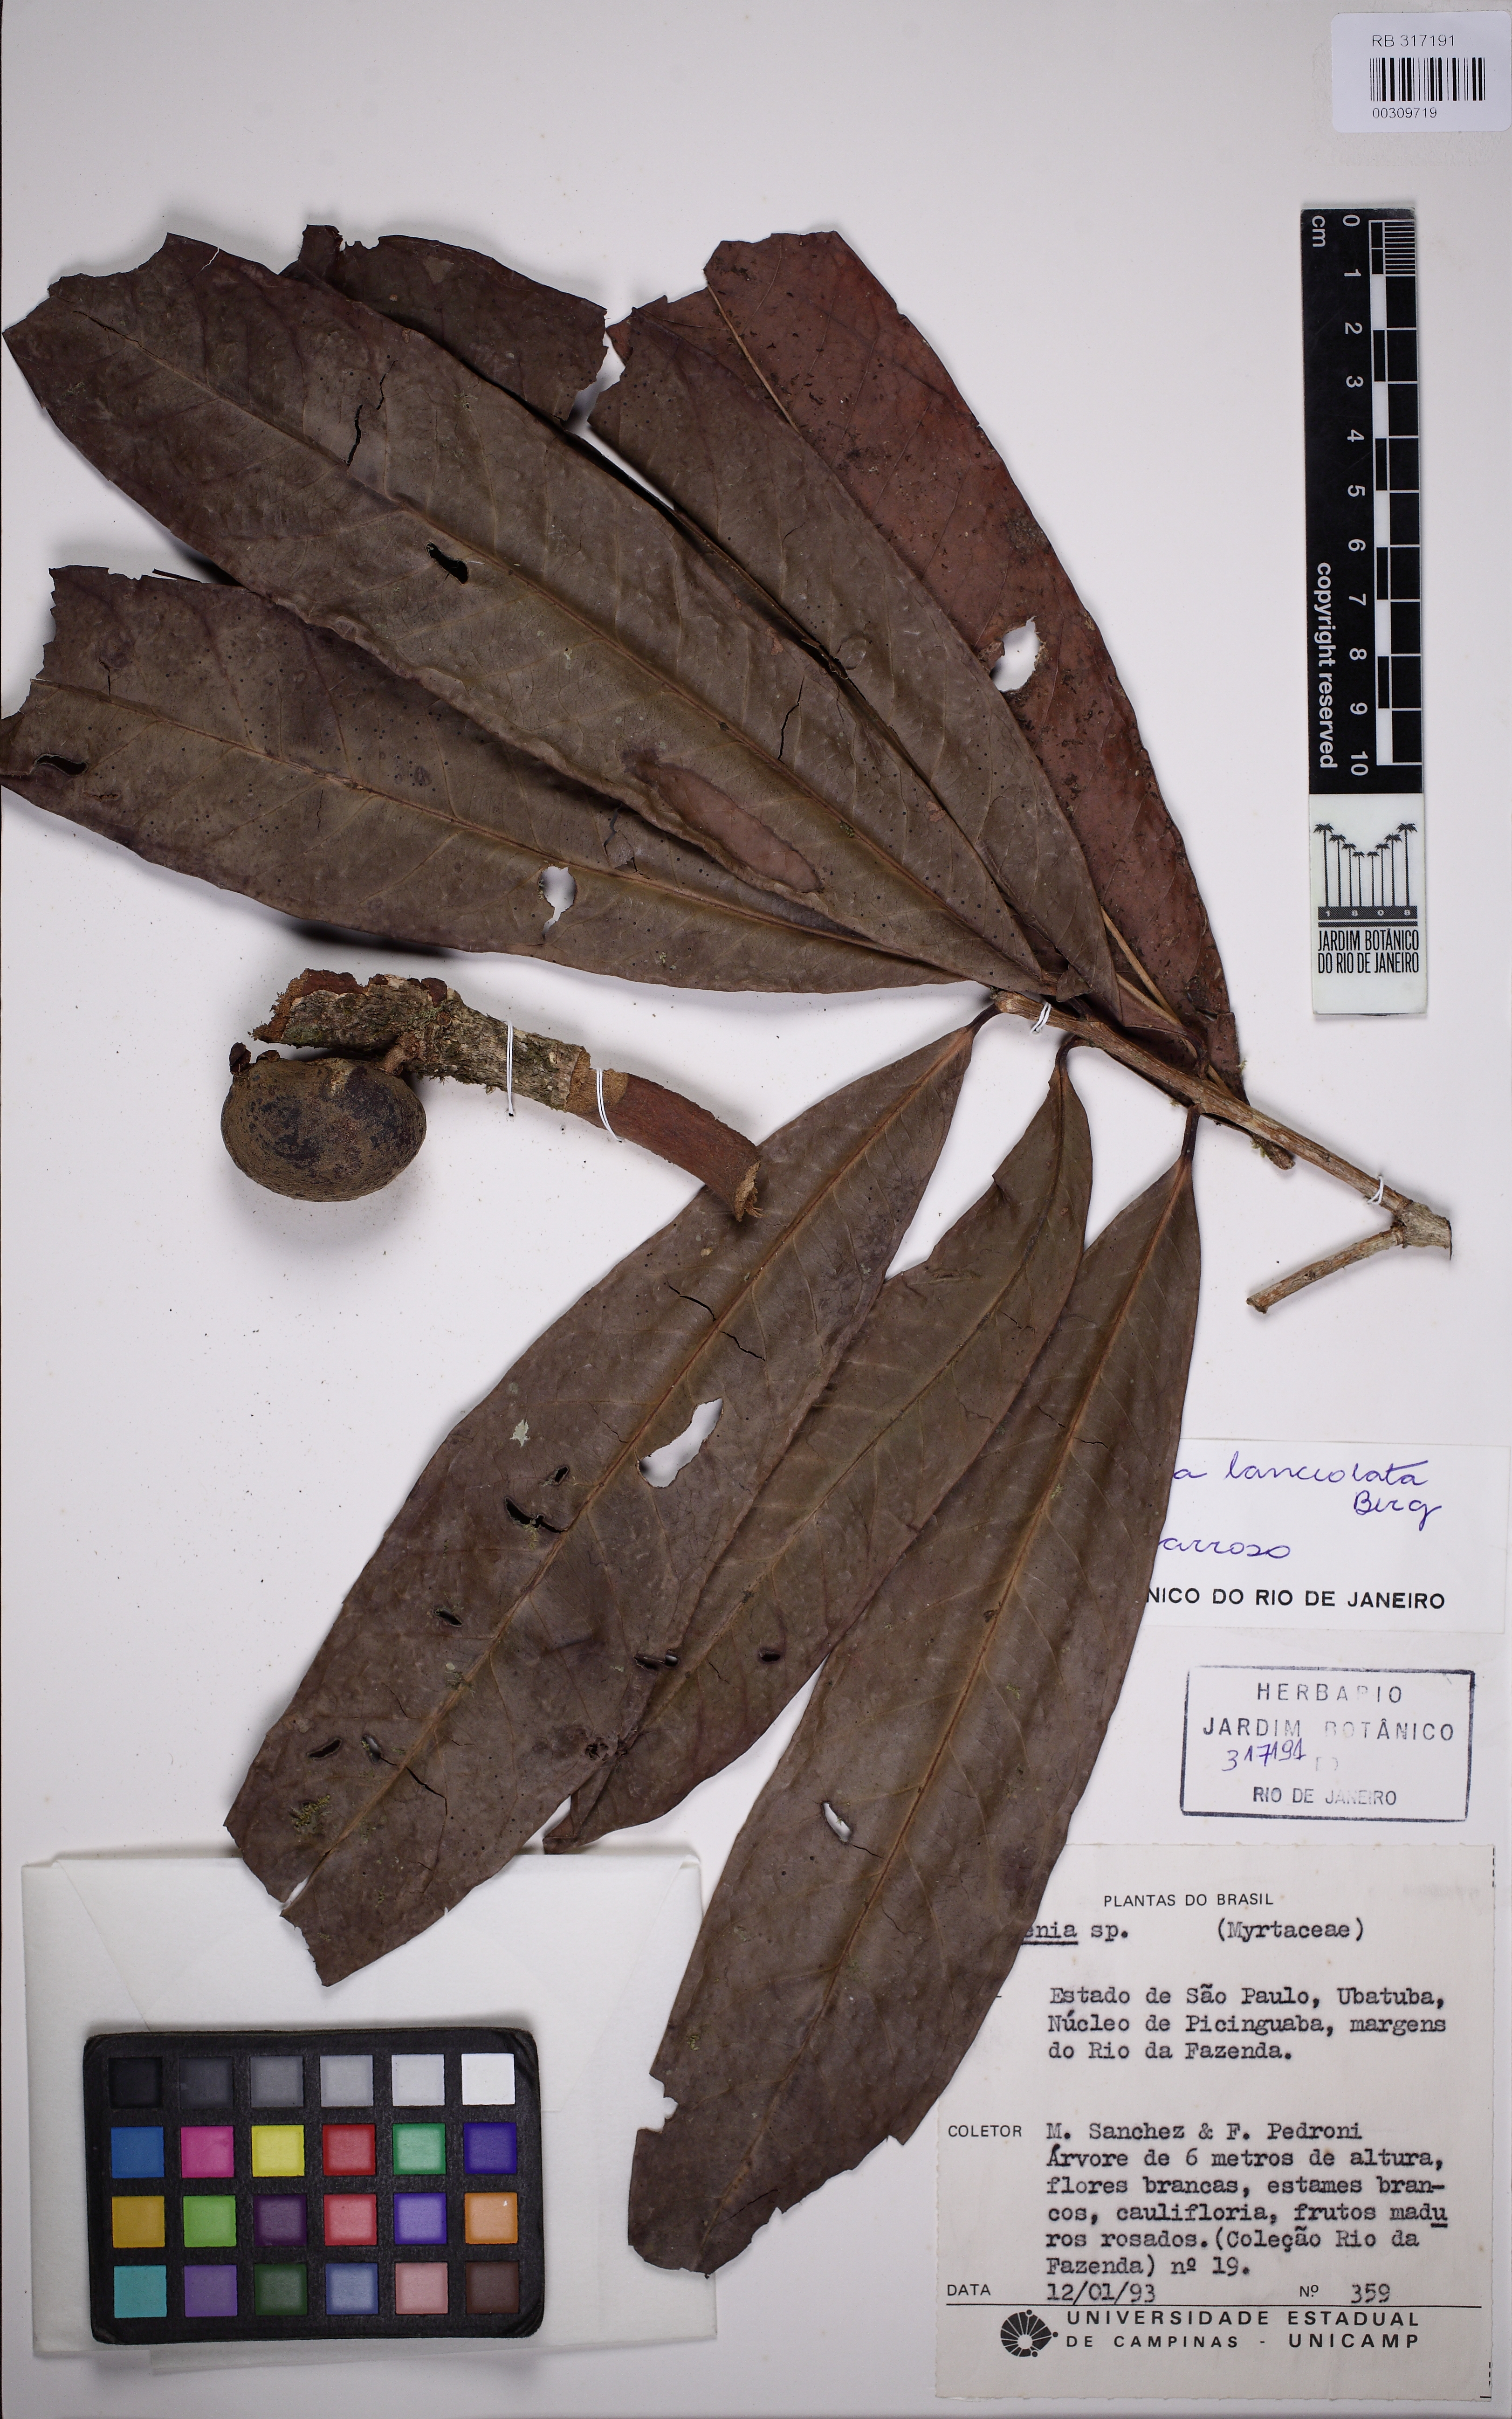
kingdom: Plantae
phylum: Tracheophyta
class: Magnoliopsida
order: Myrtales
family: Myrtaceae
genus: Eugenia
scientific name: Eugenia fusca
